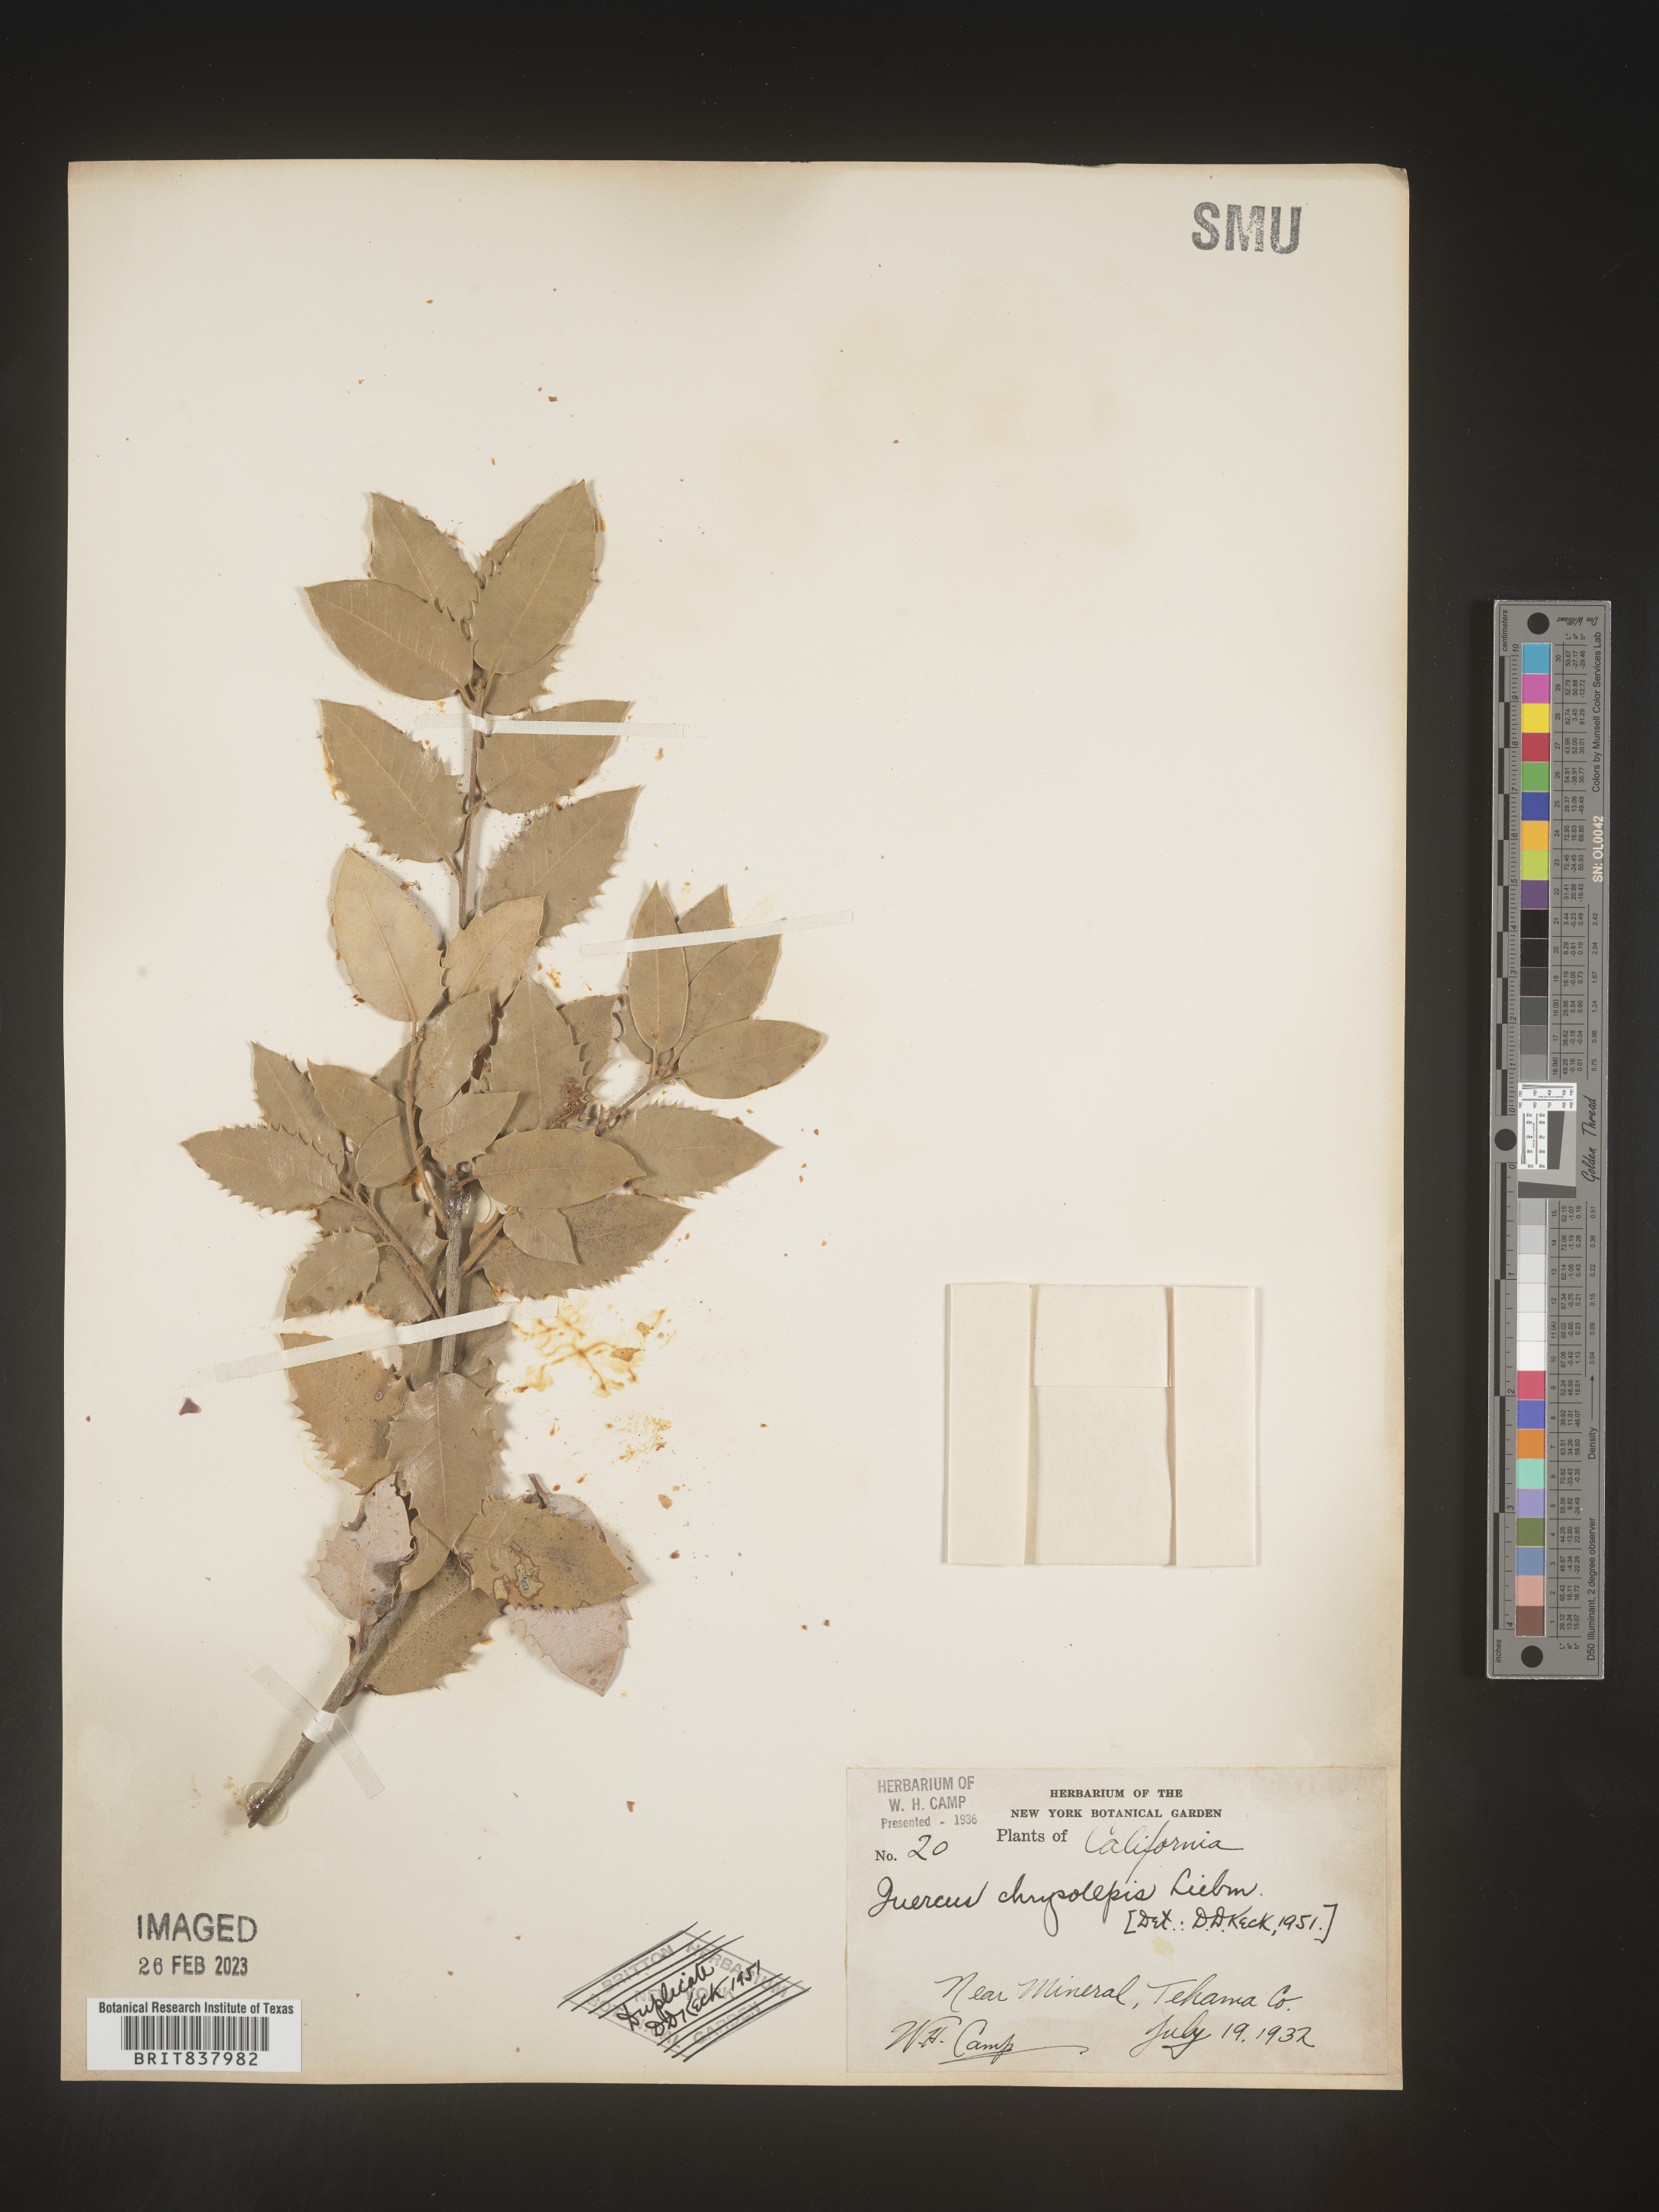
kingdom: Plantae
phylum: Tracheophyta
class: Magnoliopsida
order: Fagales
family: Fagaceae
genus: Quercus
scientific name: Quercus chrysolepis
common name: Canyon live oak
